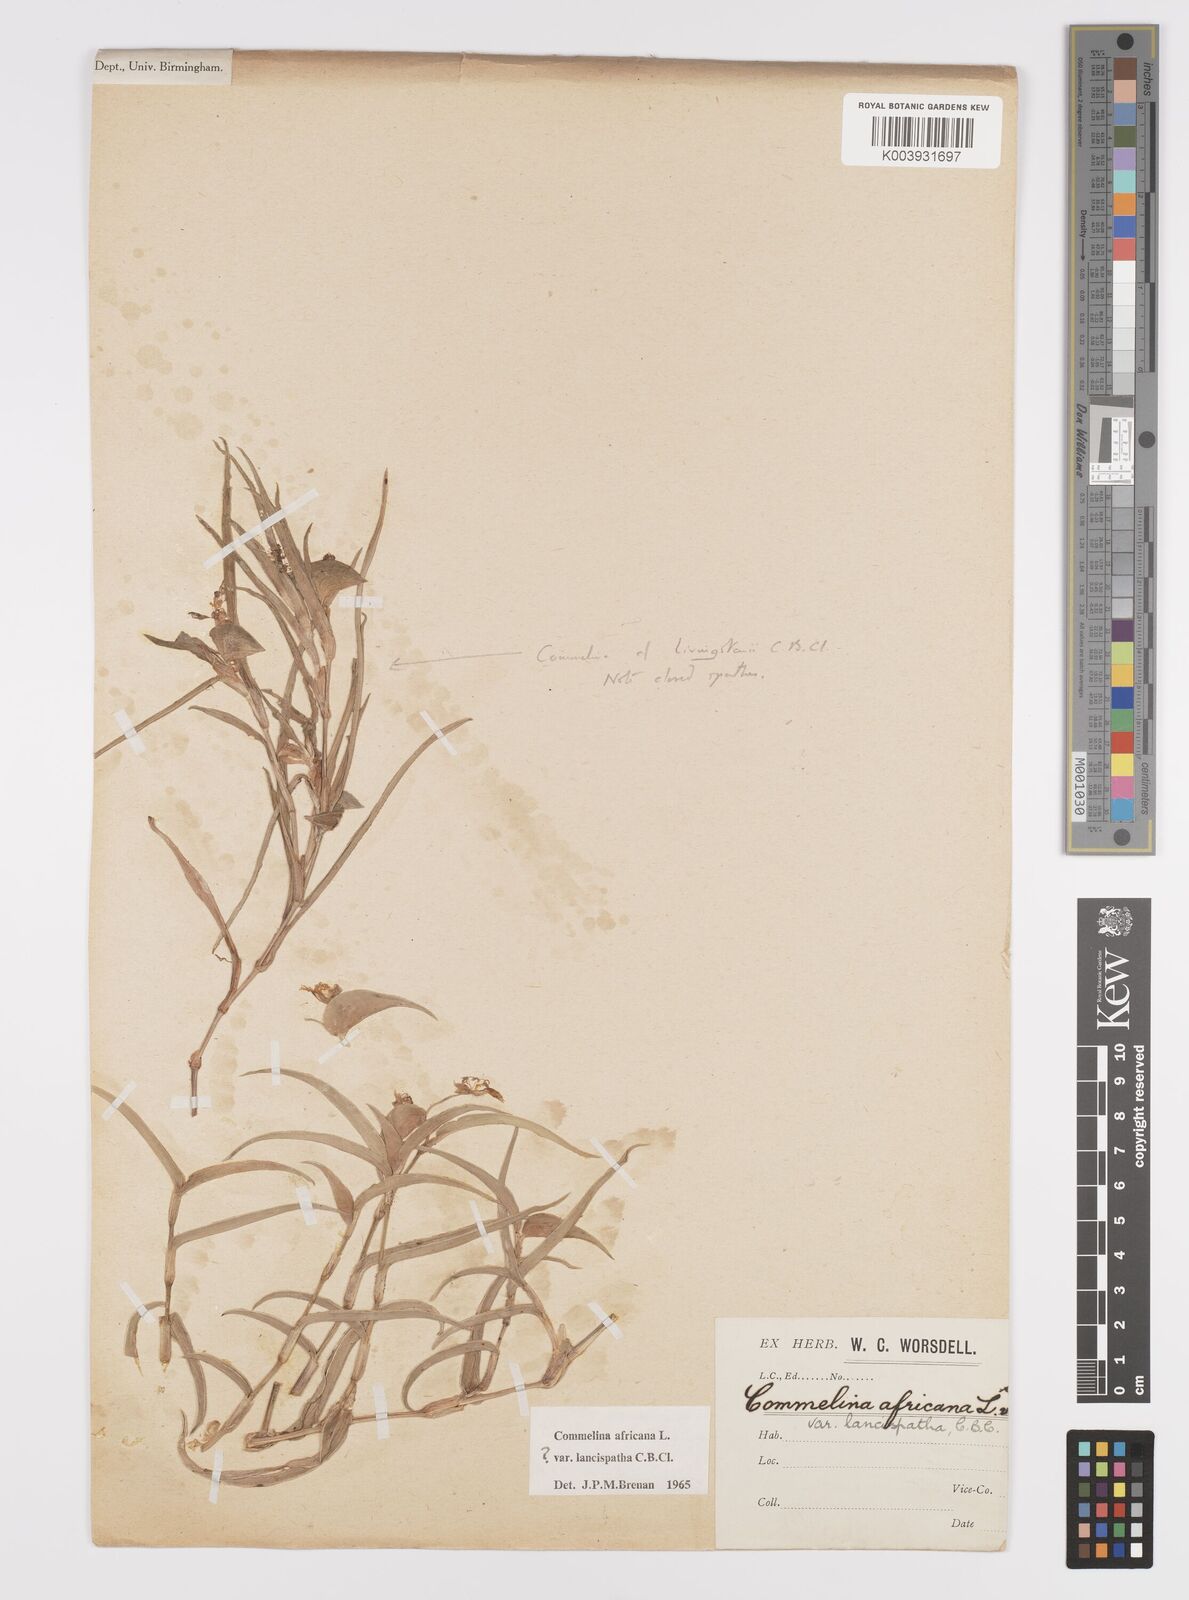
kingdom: Plantae
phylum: Tracheophyta
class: Liliopsida
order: Commelinales
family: Commelinaceae
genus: Commelina
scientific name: Commelina africana
